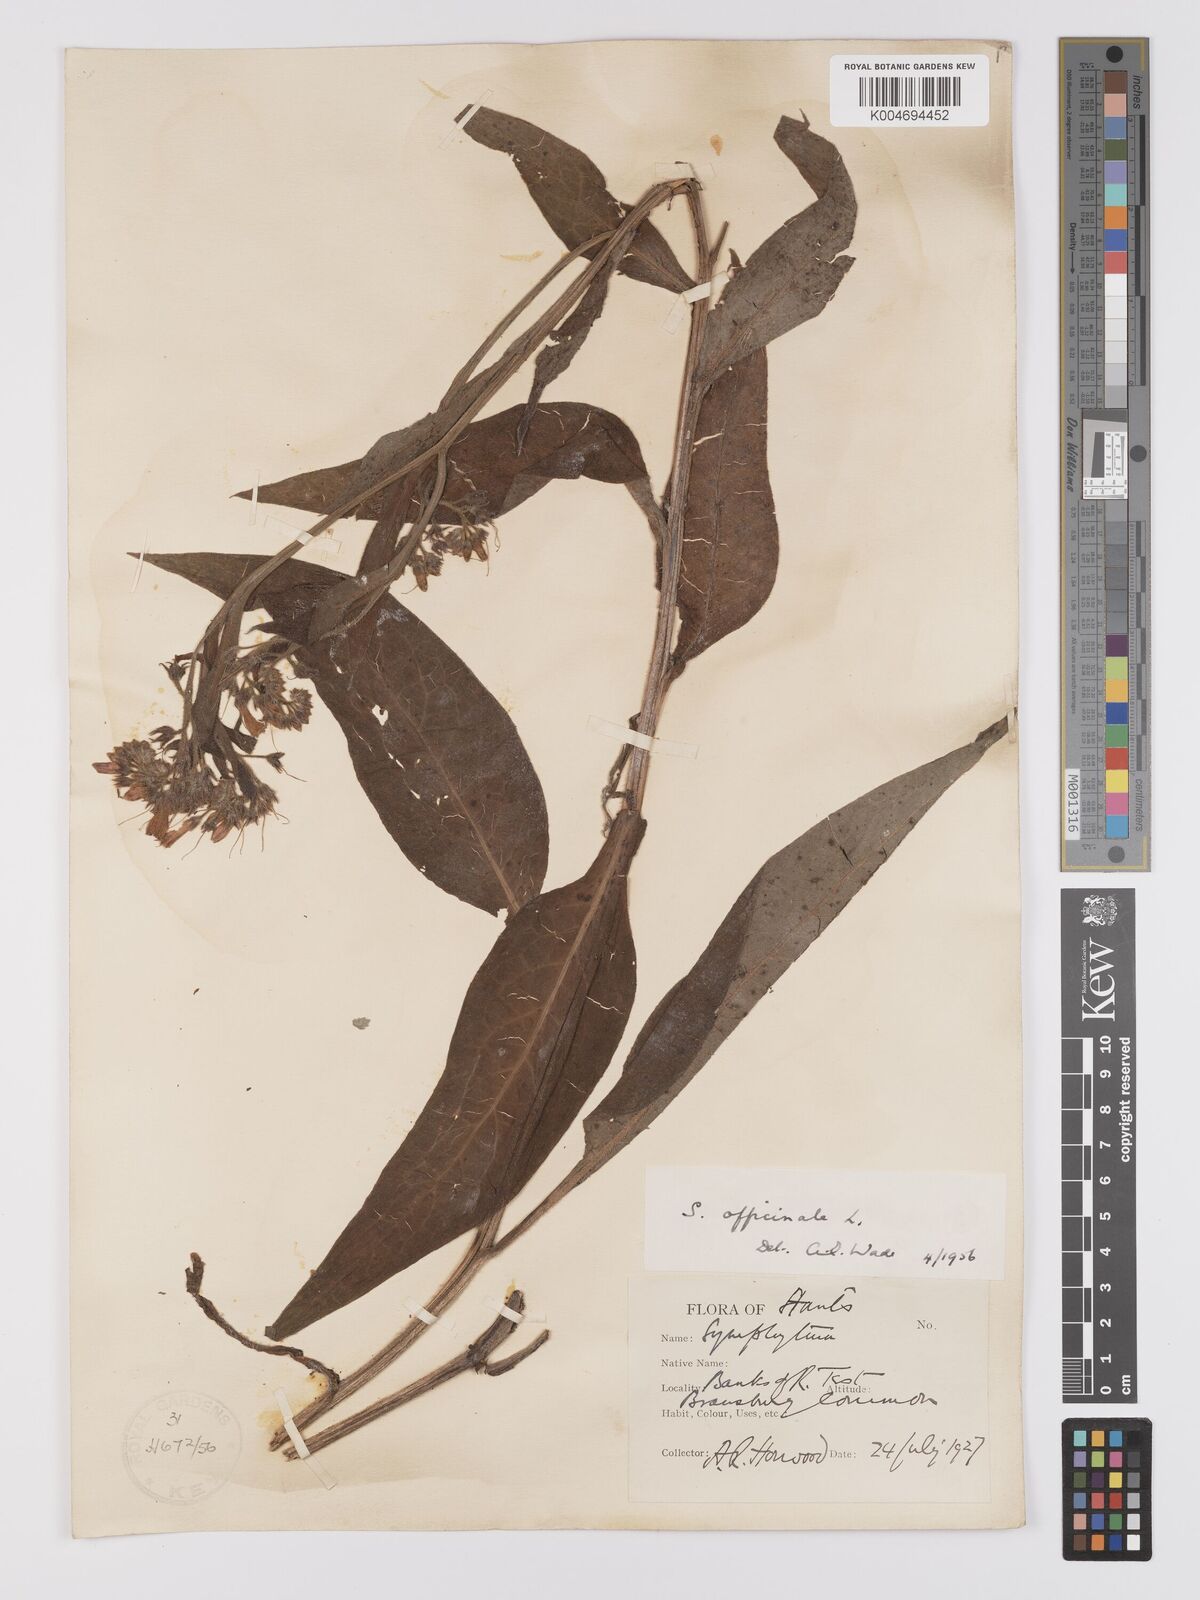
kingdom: Plantae
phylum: Tracheophyta
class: Magnoliopsida
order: Boraginales
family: Boraginaceae
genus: Symphytum
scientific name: Symphytum officinale
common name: Common comfrey
